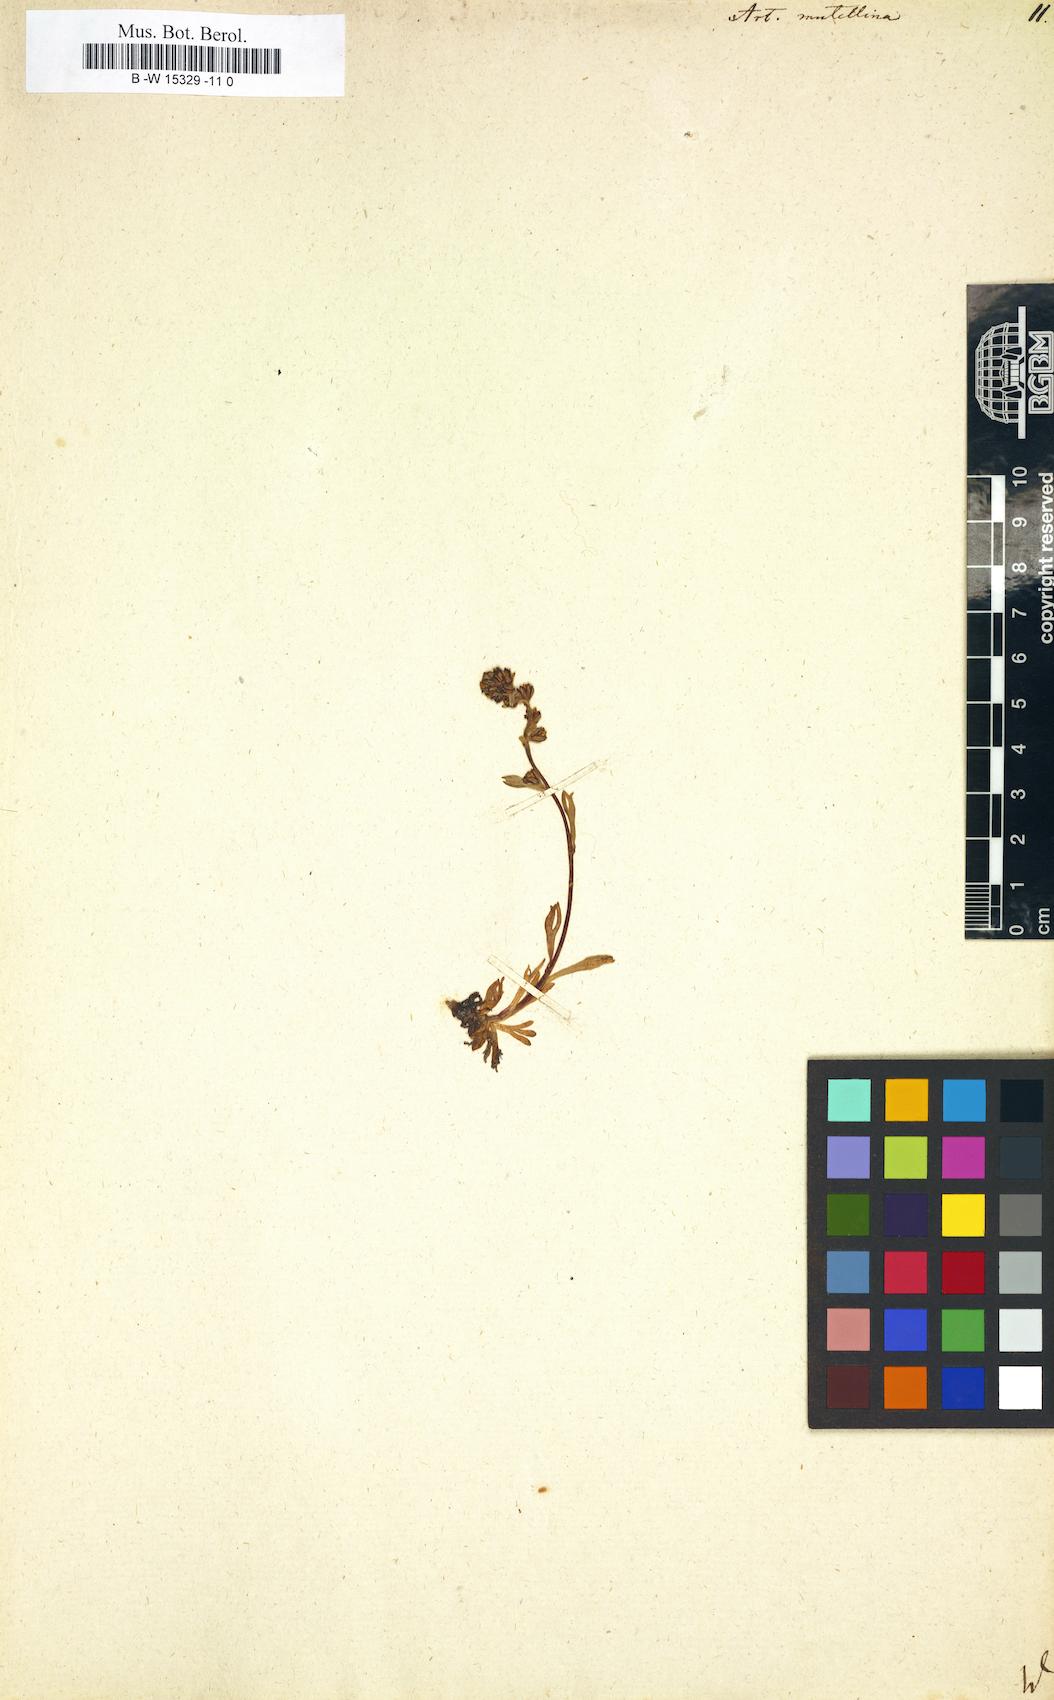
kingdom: Plantae
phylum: Tracheophyta
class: Magnoliopsida
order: Asterales
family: Asteraceae
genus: Artemisia
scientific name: Artemisia mutellina
